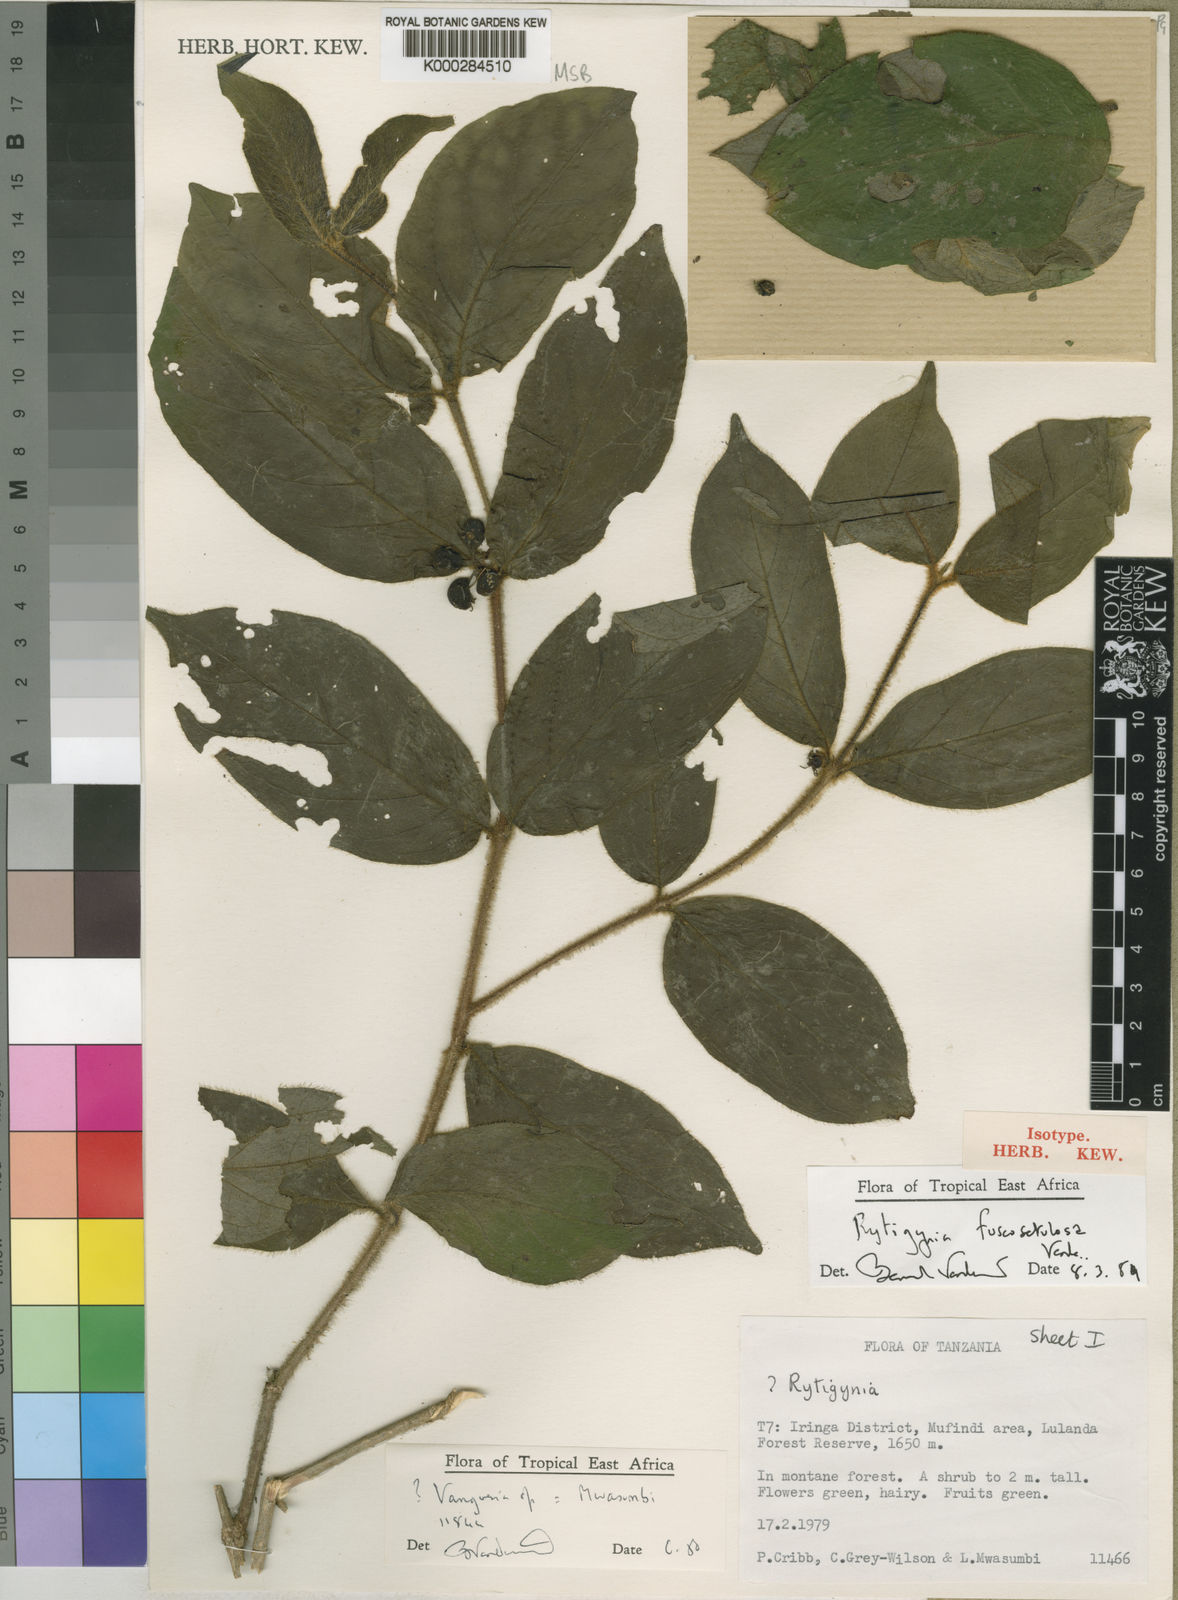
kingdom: Plantae
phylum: Tracheophyta
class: Magnoliopsida
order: Gentianales
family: Rubiaceae
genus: Vangueria
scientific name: Vangueria fuscosetulosa
